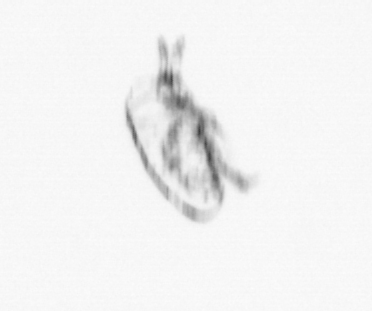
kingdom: Animalia
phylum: Arthropoda
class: Maxillopoda
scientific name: Maxillopoda
